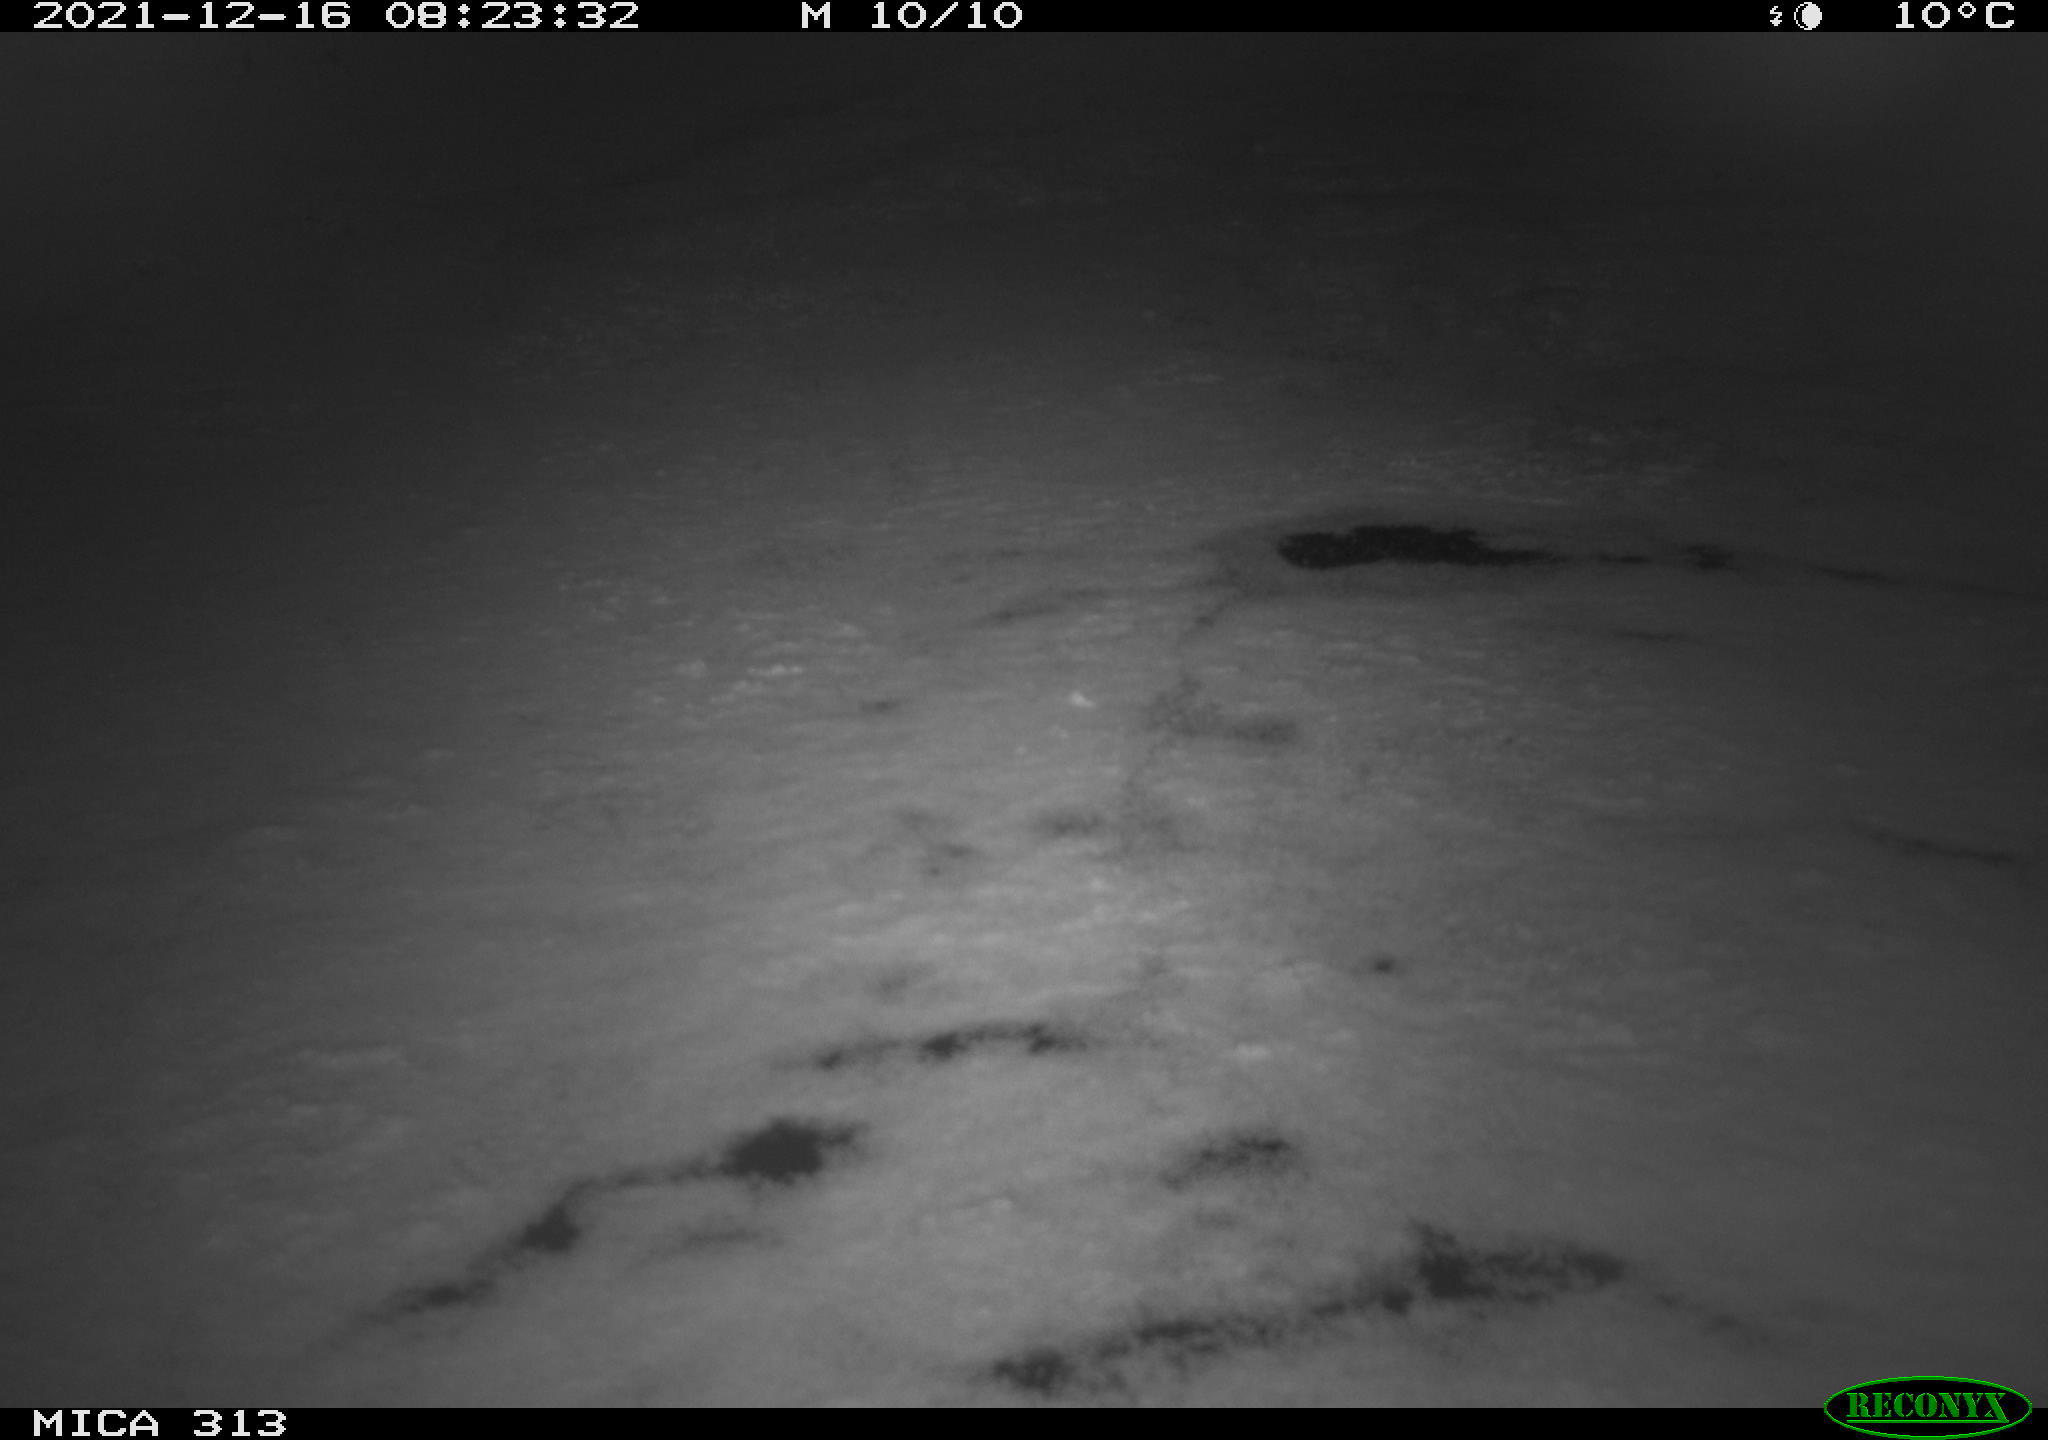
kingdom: Animalia
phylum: Chordata
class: Aves
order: Gruiformes
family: Rallidae
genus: Gallinula
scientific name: Gallinula chloropus
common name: Common moorhen
